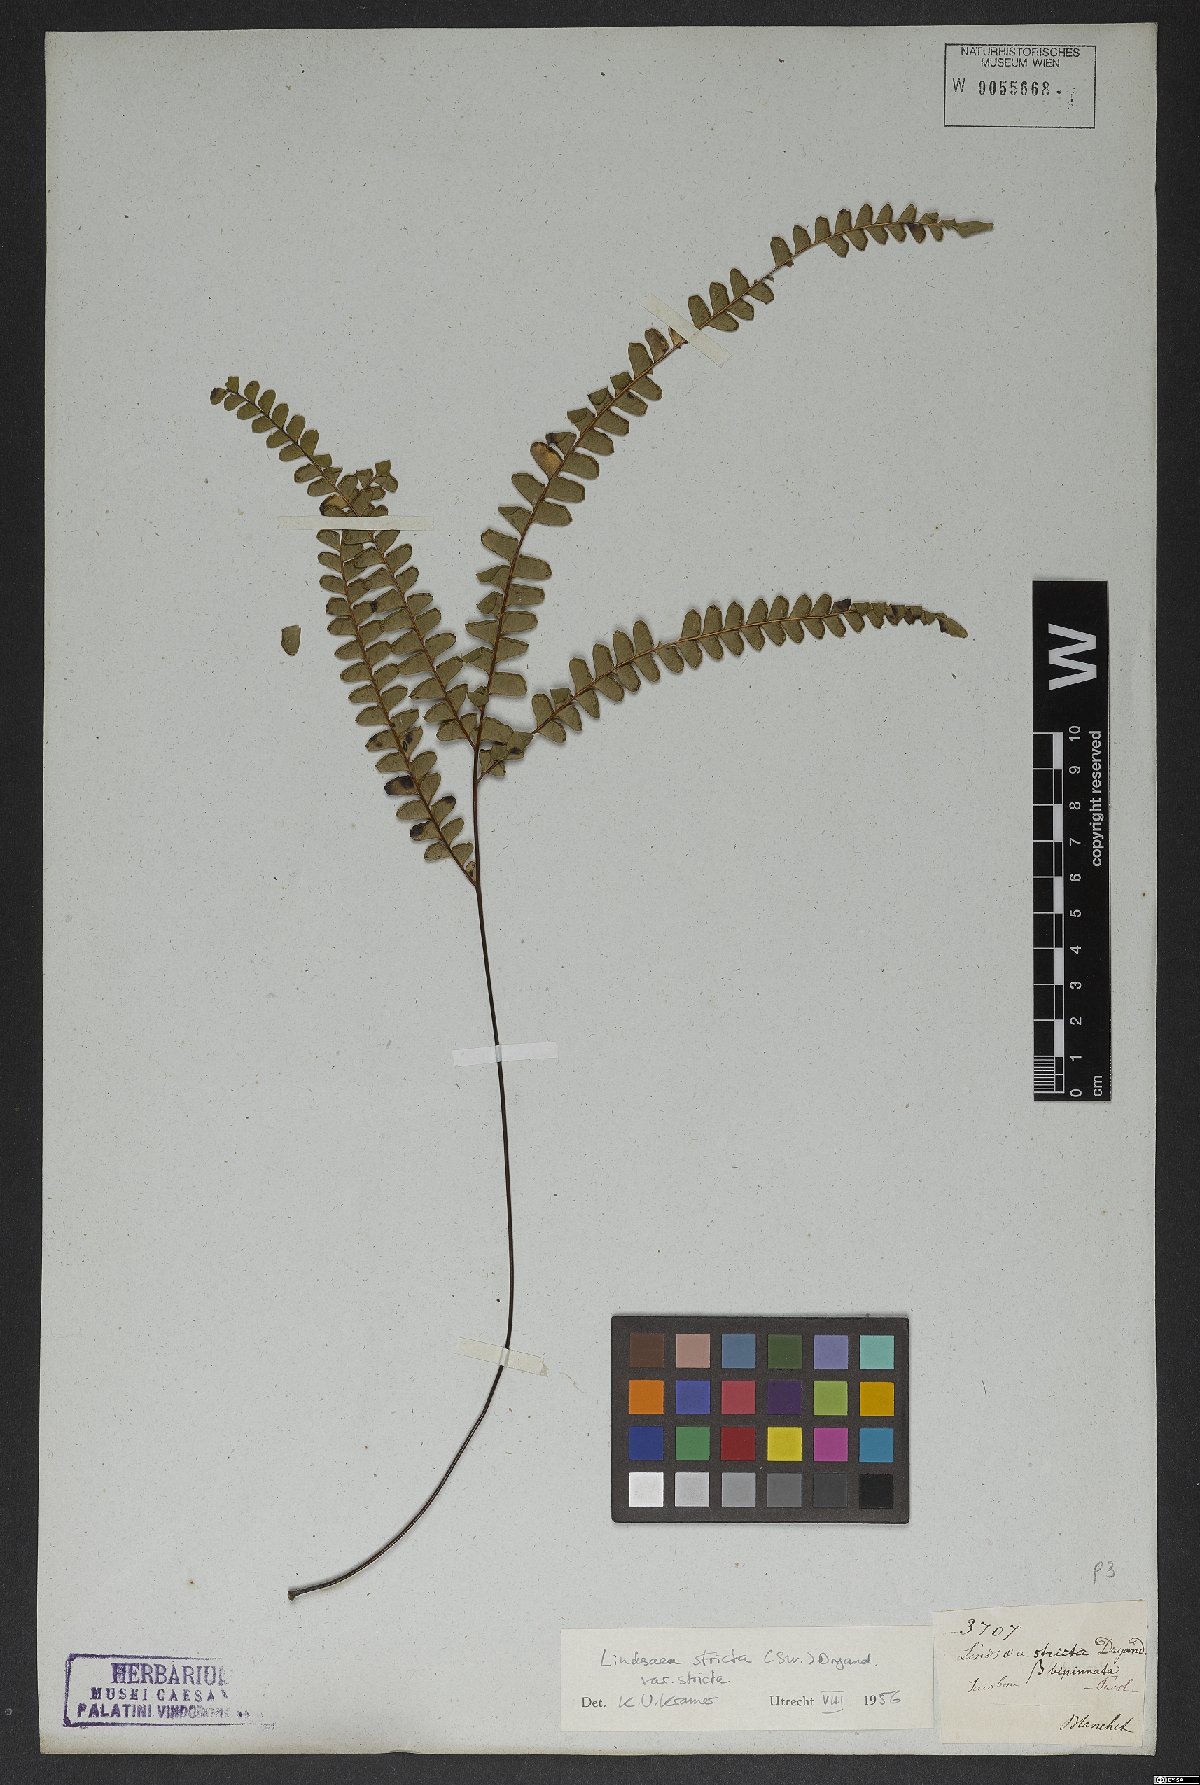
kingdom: Plantae
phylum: Tracheophyta
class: Polypodiopsida
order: Polypodiales
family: Lindsaeaceae
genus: Lindsaea
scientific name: Lindsaea stricta
